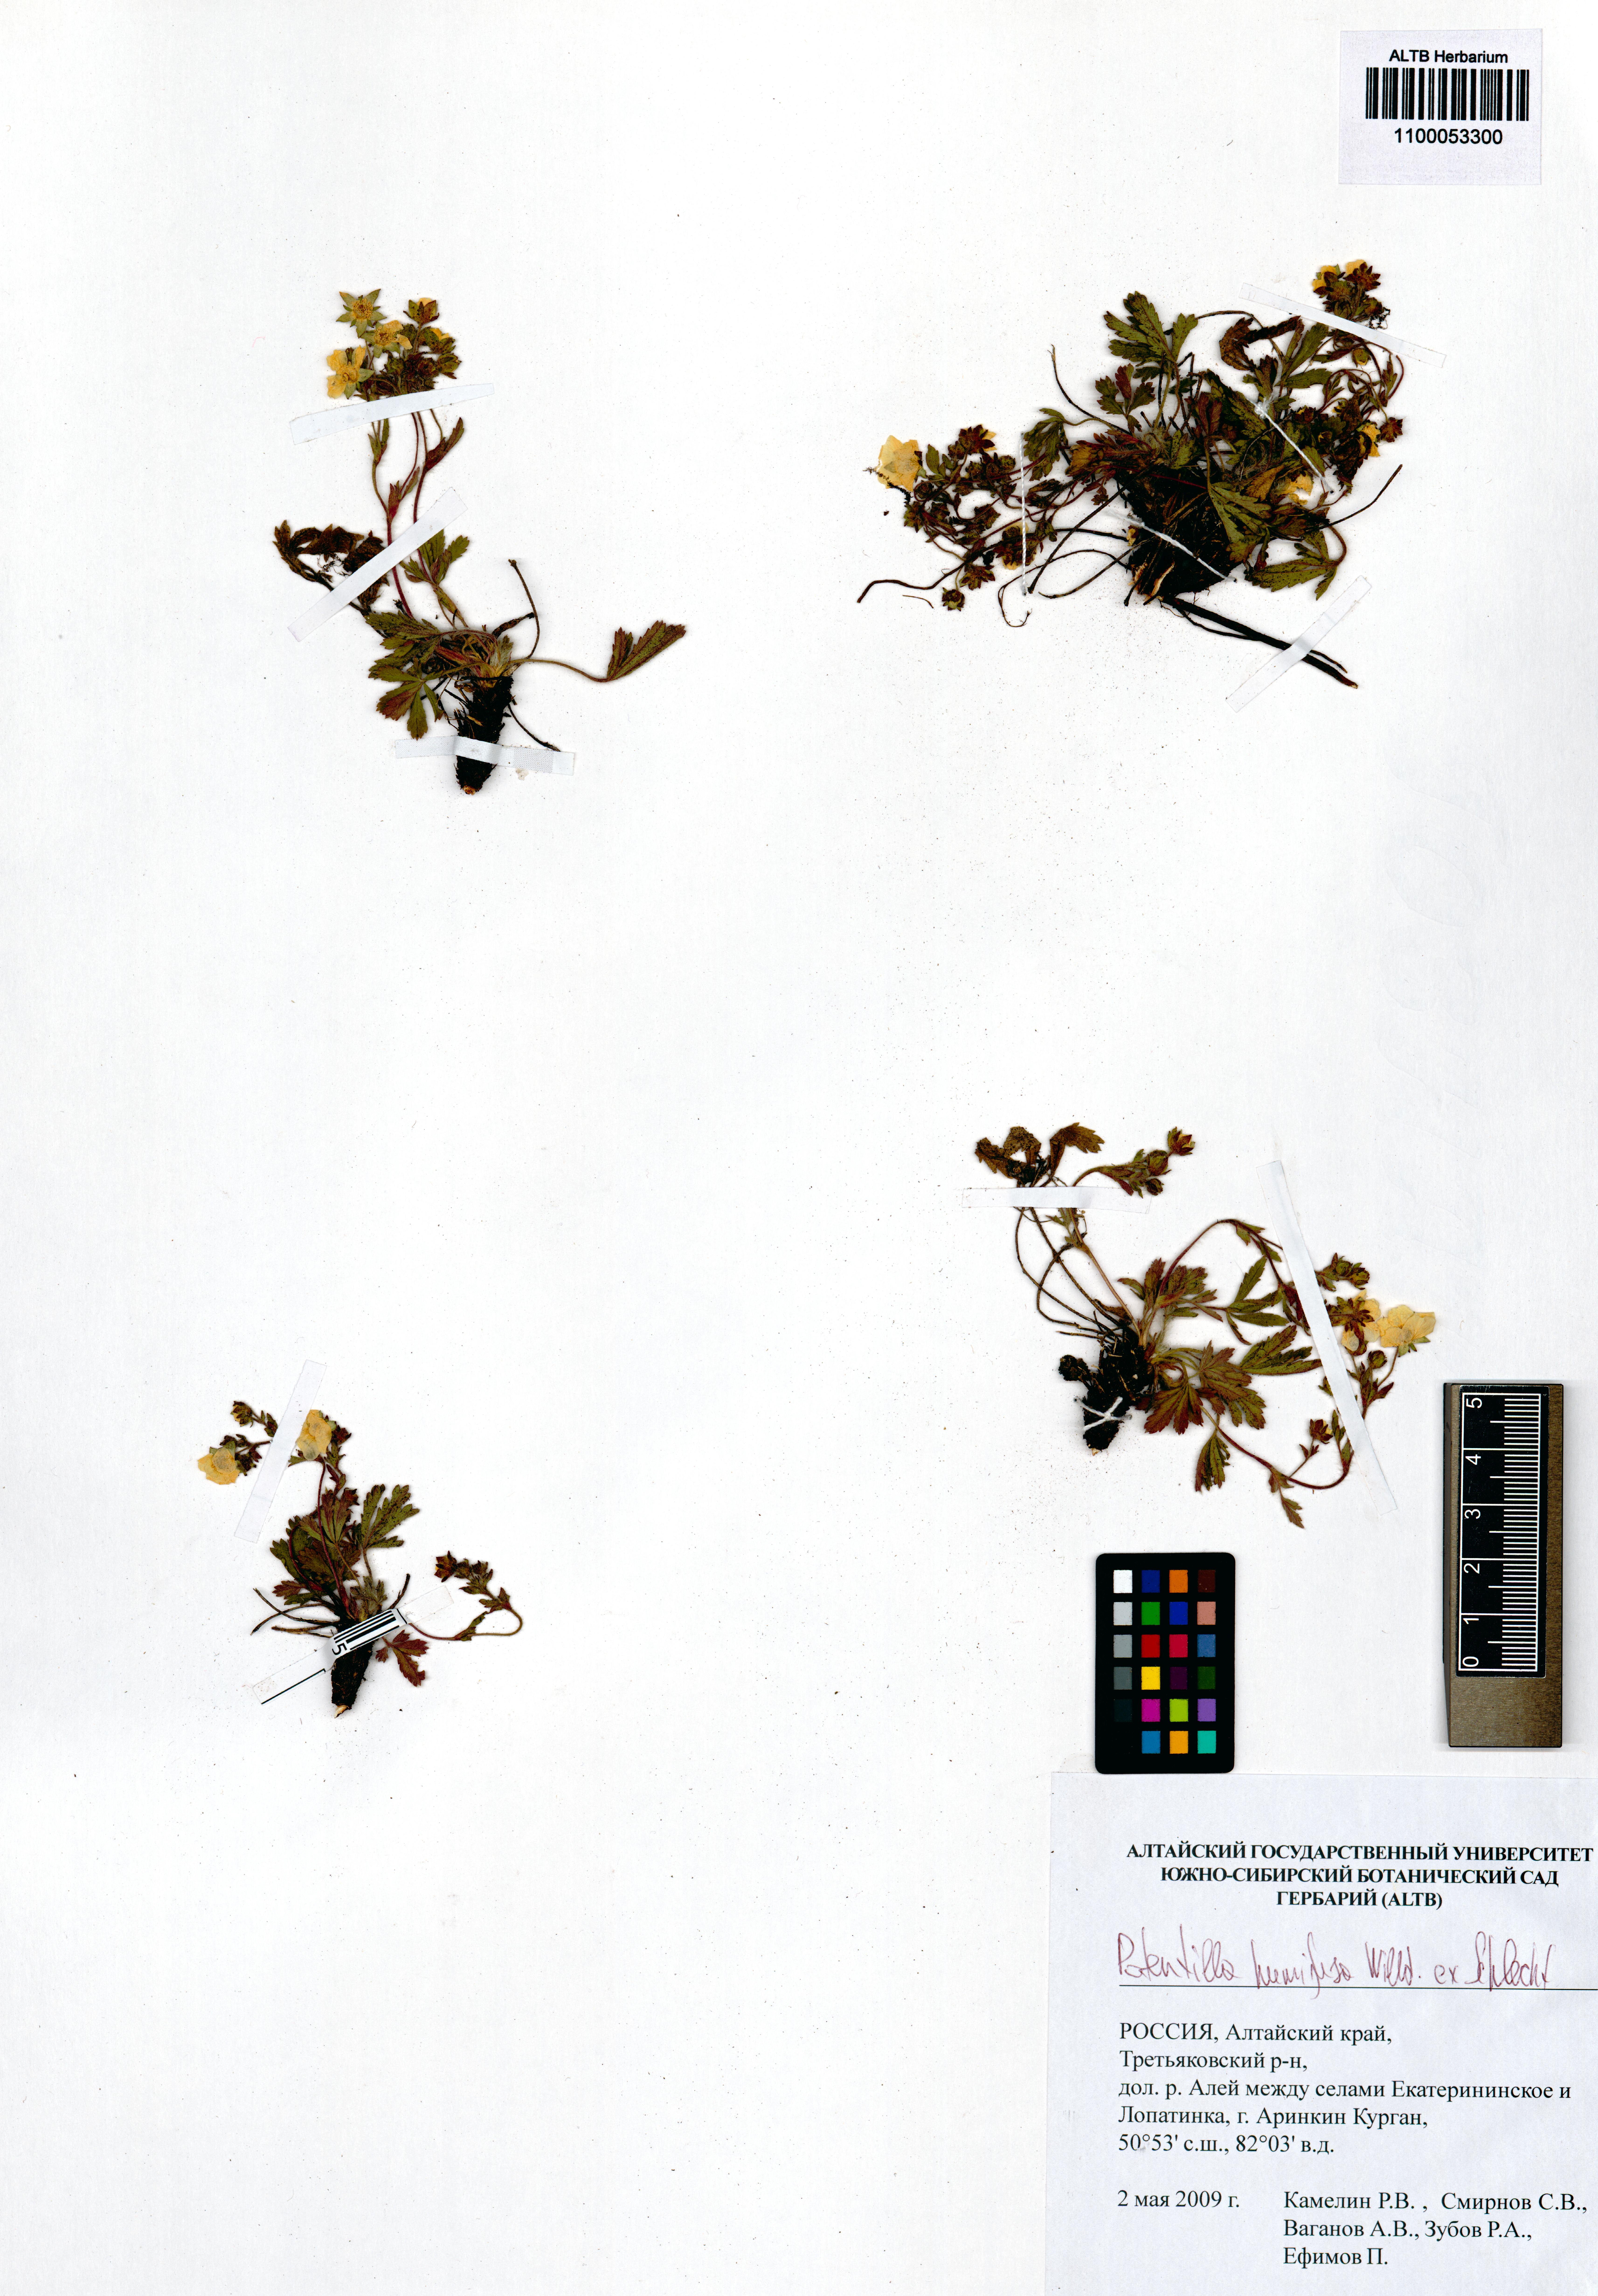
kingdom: Plantae
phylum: Tracheophyta
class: Magnoliopsida
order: Rosales
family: Rosaceae
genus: Potentilla
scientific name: Potentilla humifusa
